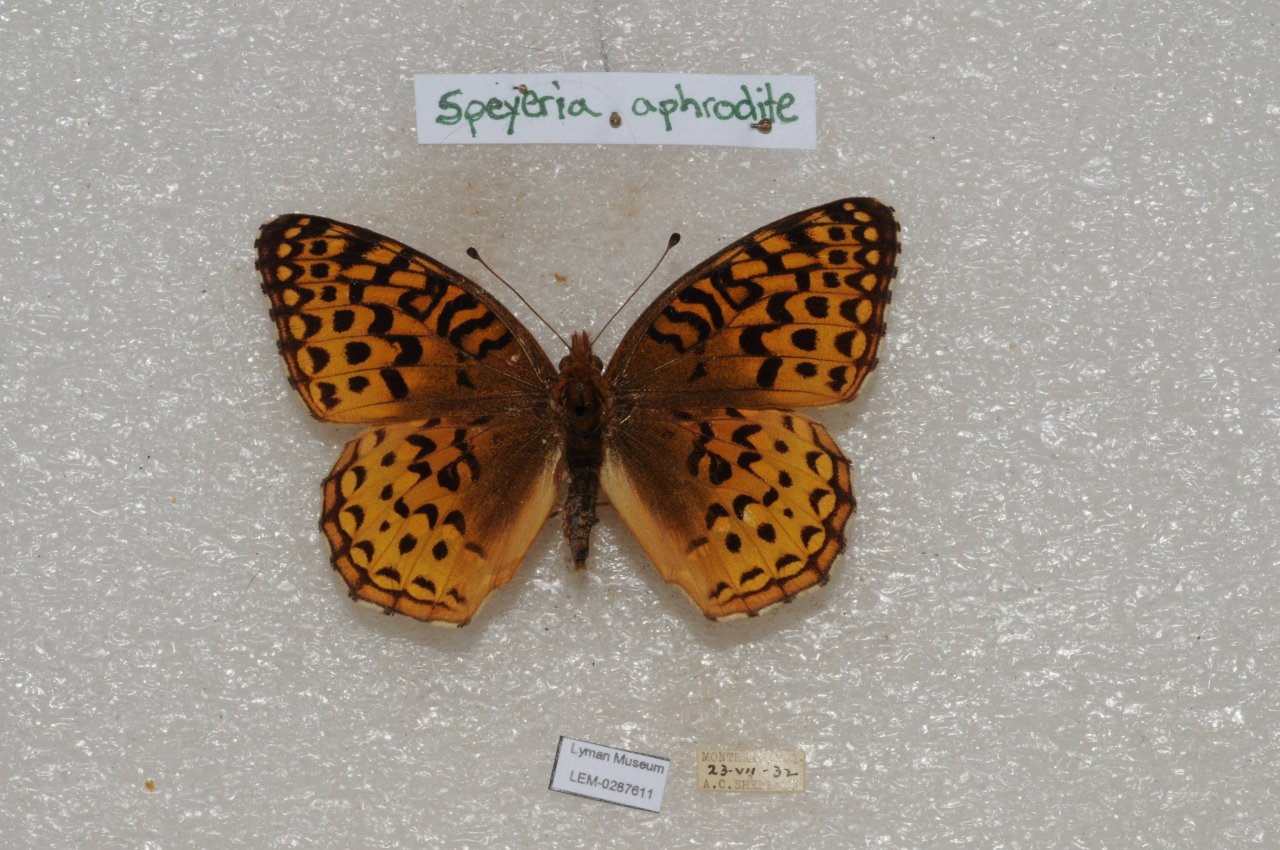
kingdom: Animalia
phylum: Arthropoda
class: Insecta
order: Lepidoptera
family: Nymphalidae
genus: Speyeria
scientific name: Speyeria aphrodite
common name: Aphrodite Fritillary
